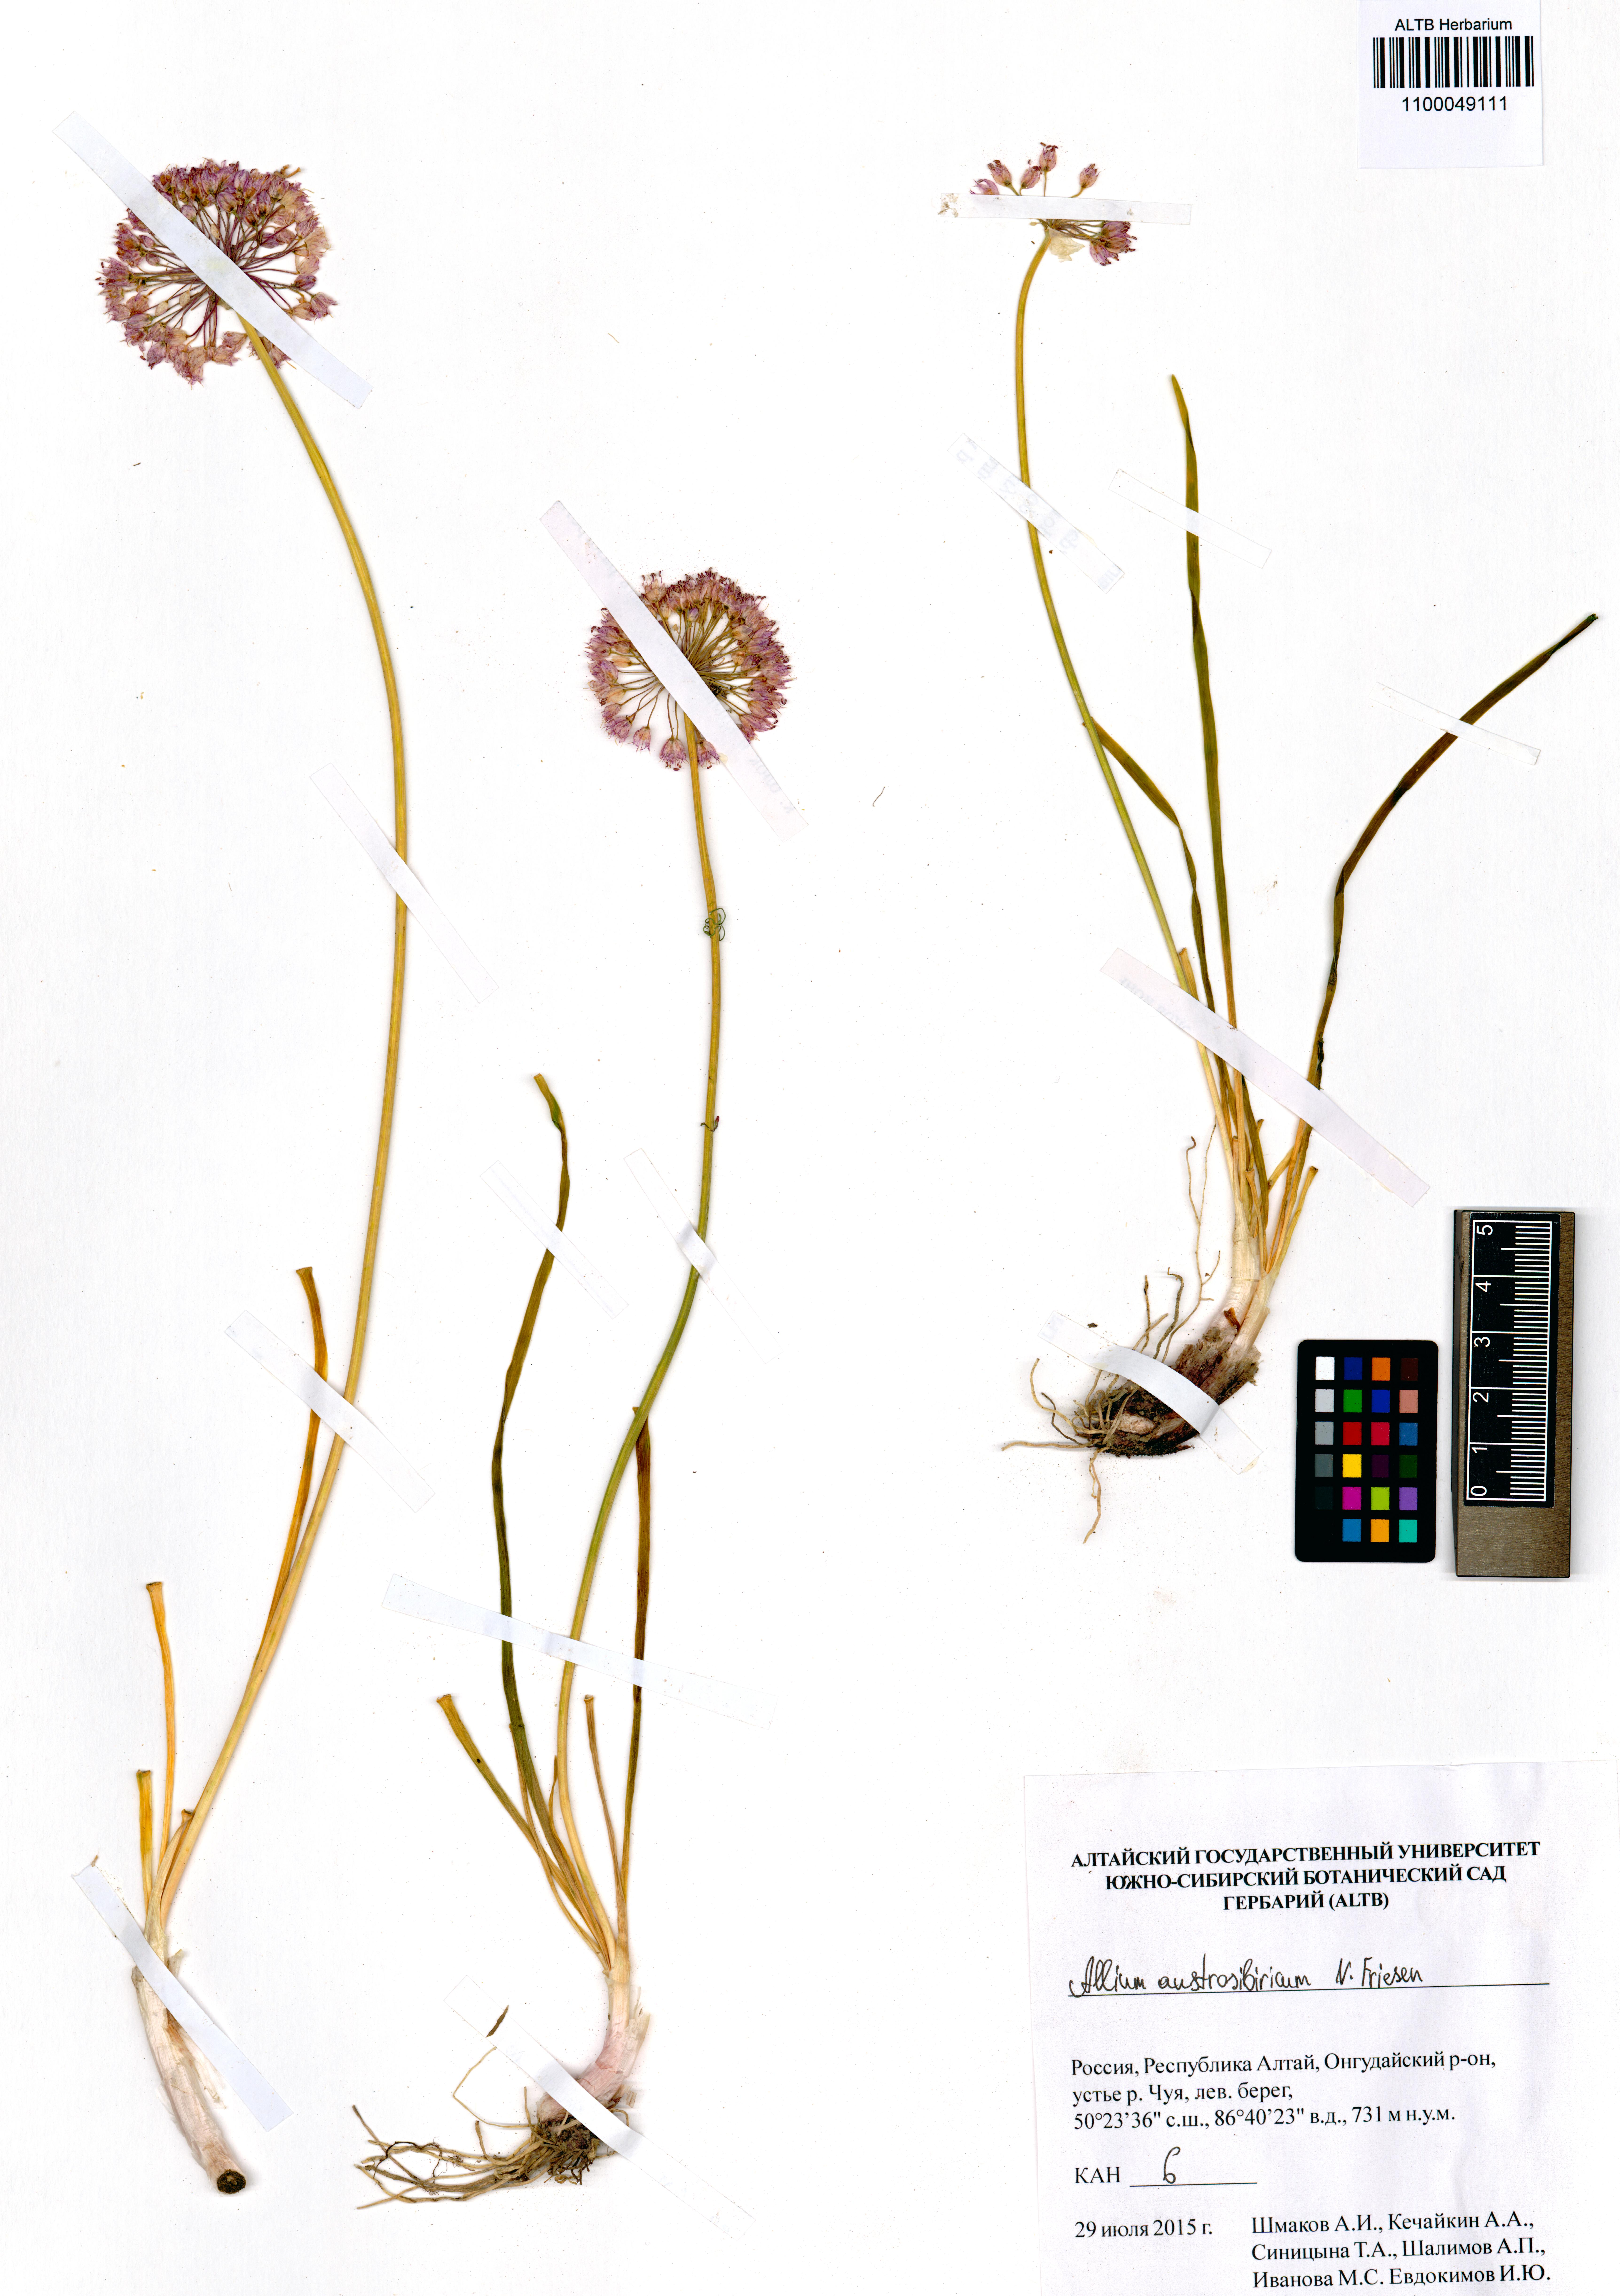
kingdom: Plantae
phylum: Tracheophyta
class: Liliopsida
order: Asparagales
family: Amaryllidaceae
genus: Allium
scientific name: Allium austrosibiricum
